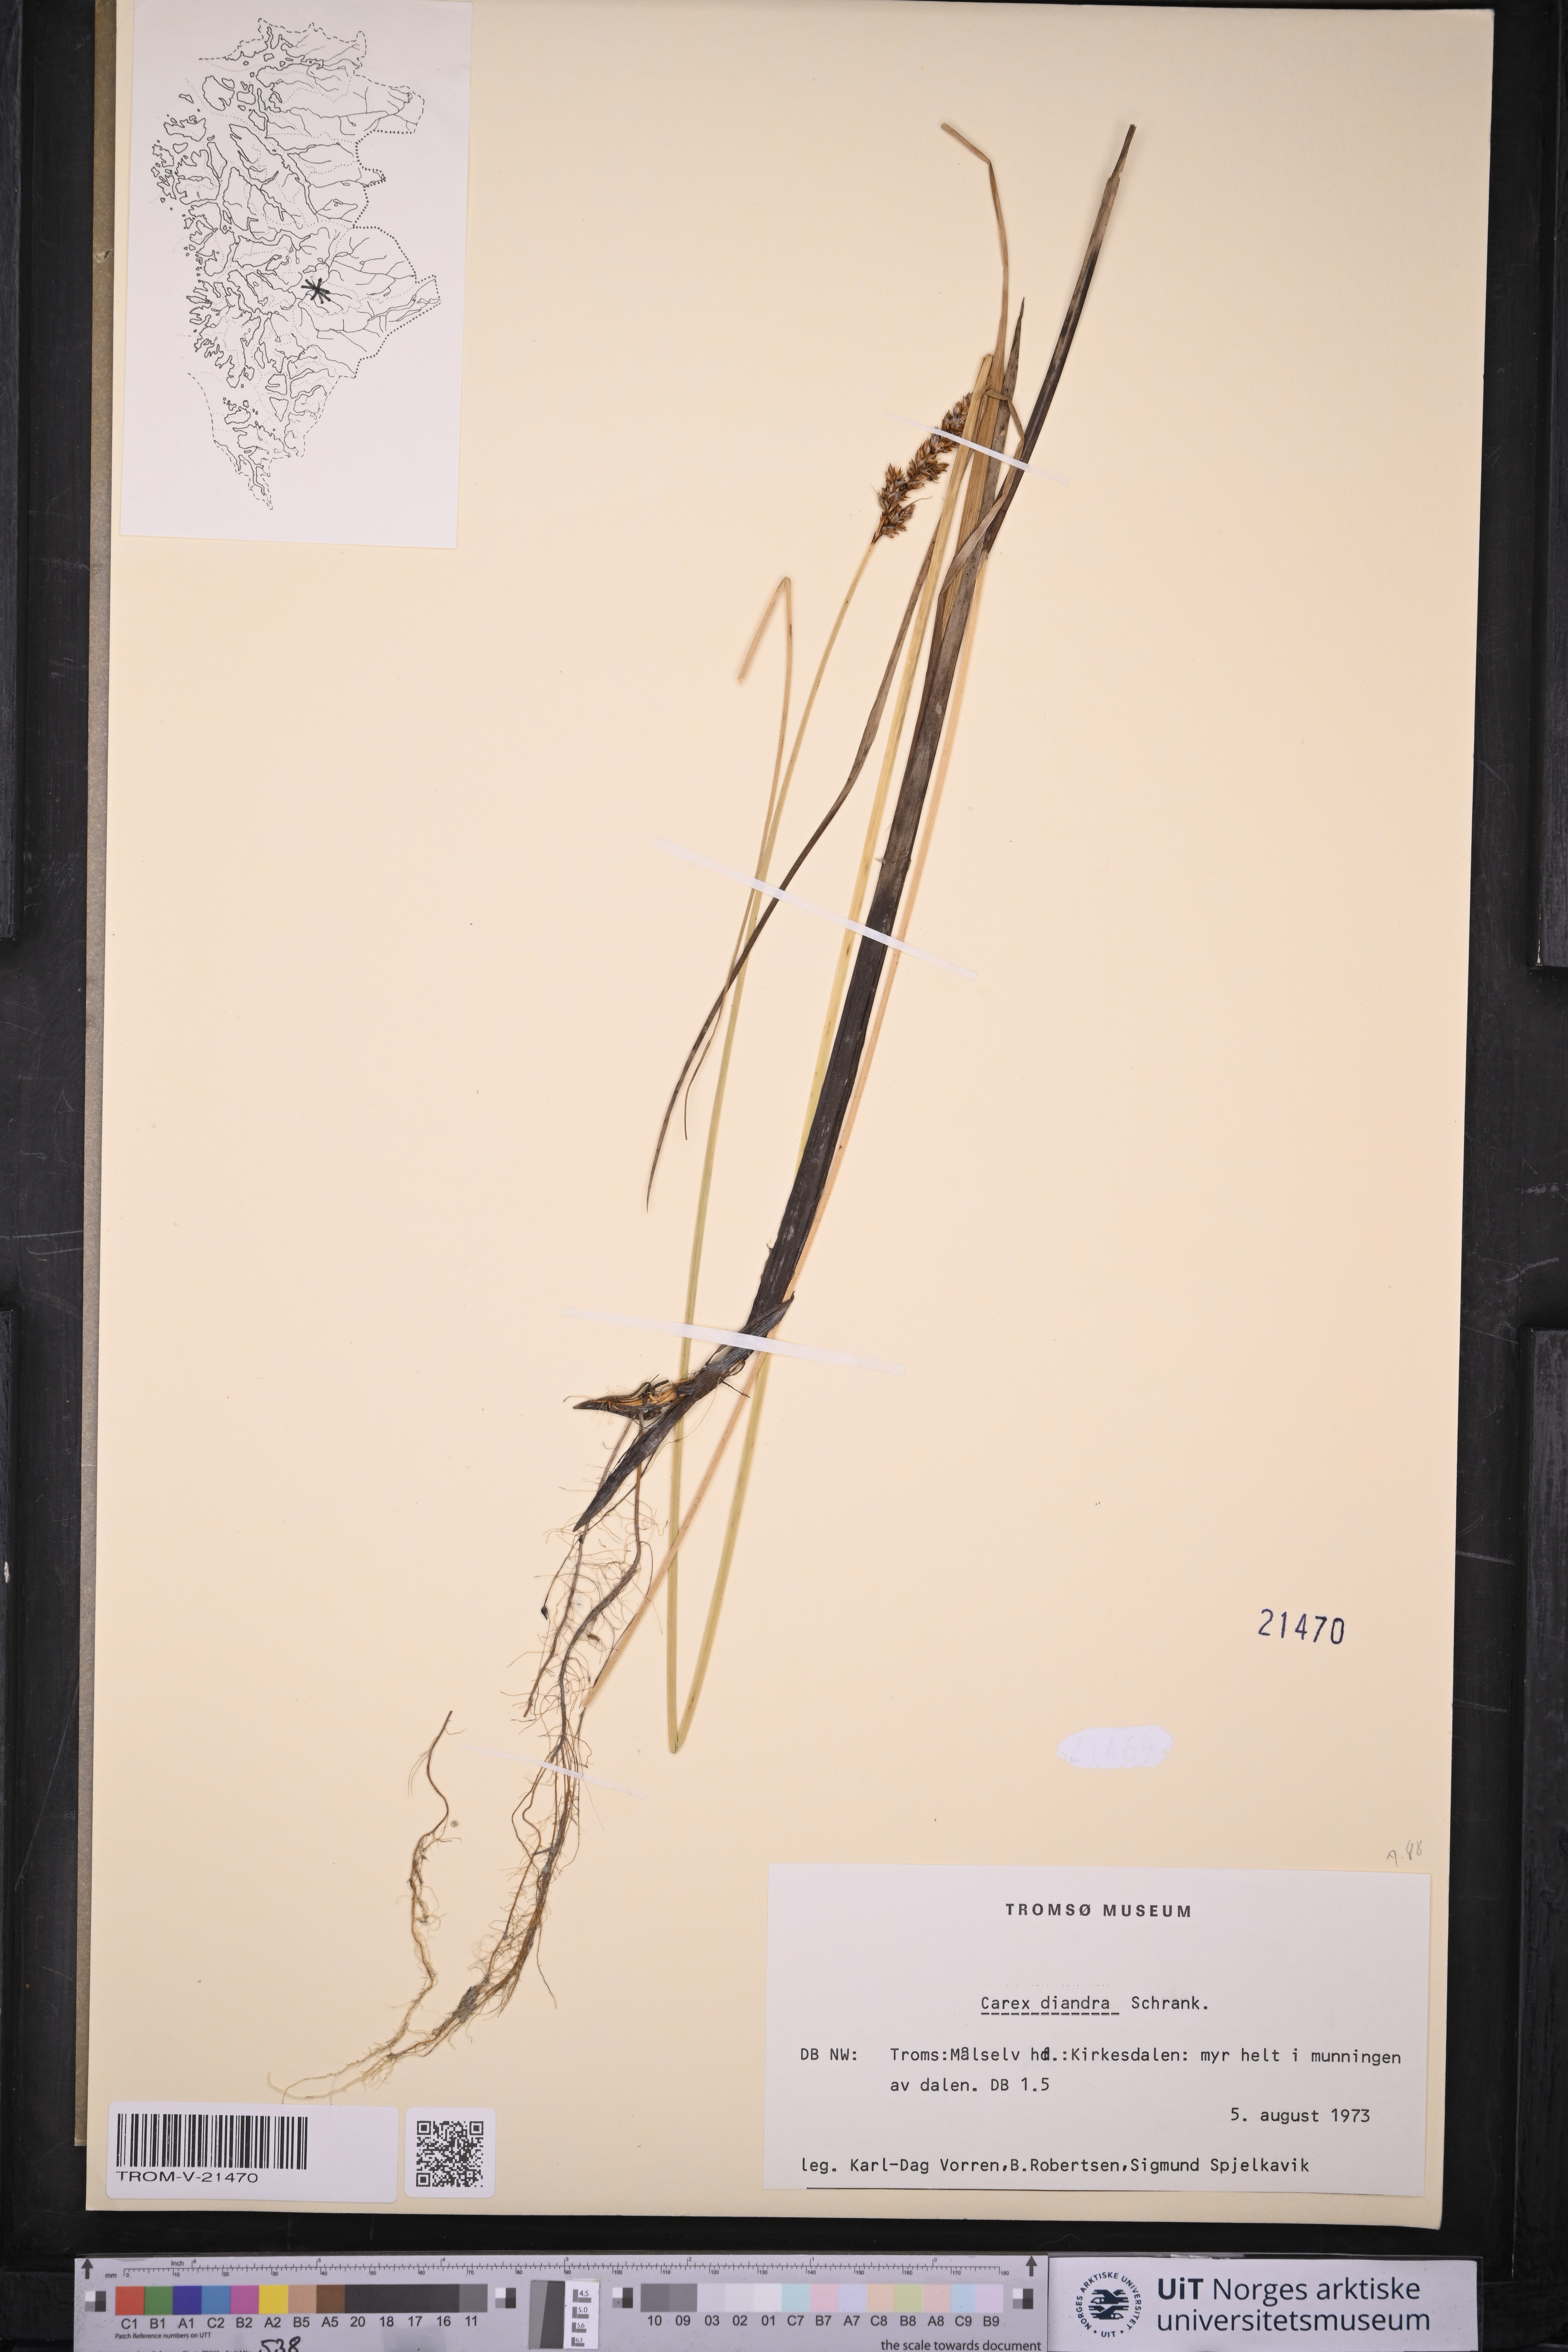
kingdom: Plantae
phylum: Tracheophyta
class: Liliopsida
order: Poales
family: Cyperaceae
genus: Carex
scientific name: Carex diandra
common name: Lesser tussock-sedge
